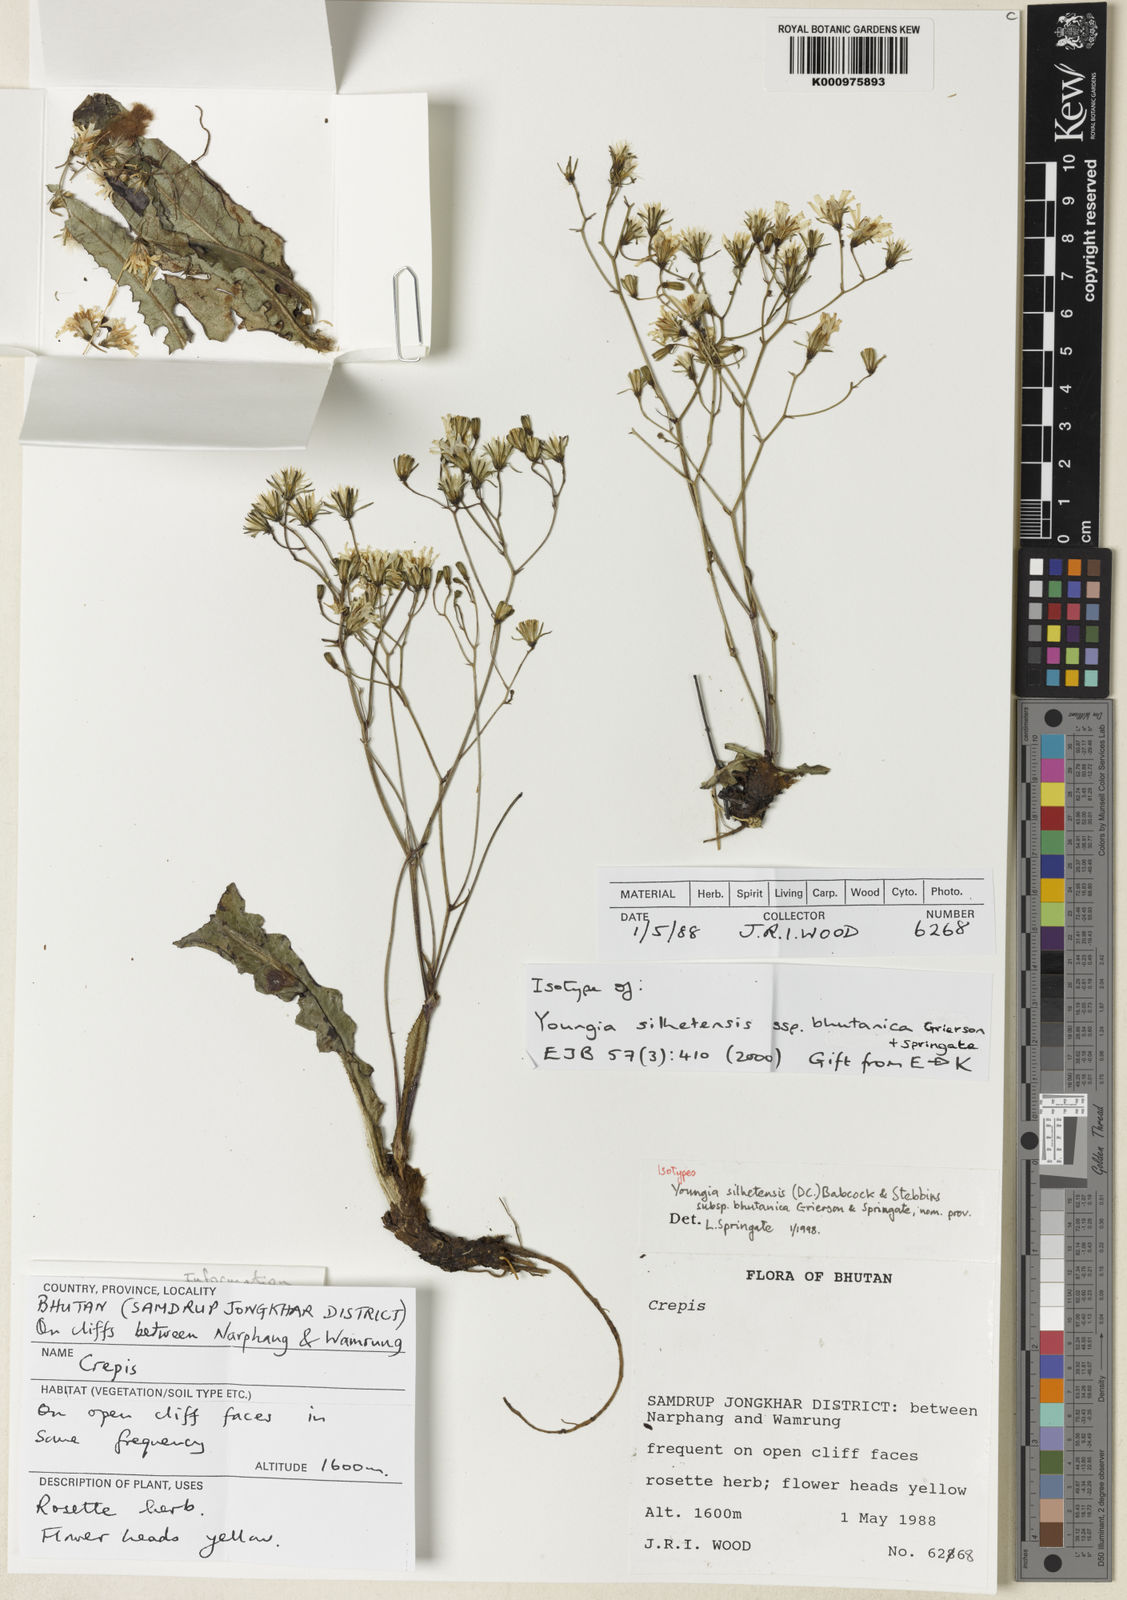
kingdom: Plantae
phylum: Tracheophyta
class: Magnoliopsida
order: Asterales
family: Asteraceae
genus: Faberia
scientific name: Faberia silhetensis
